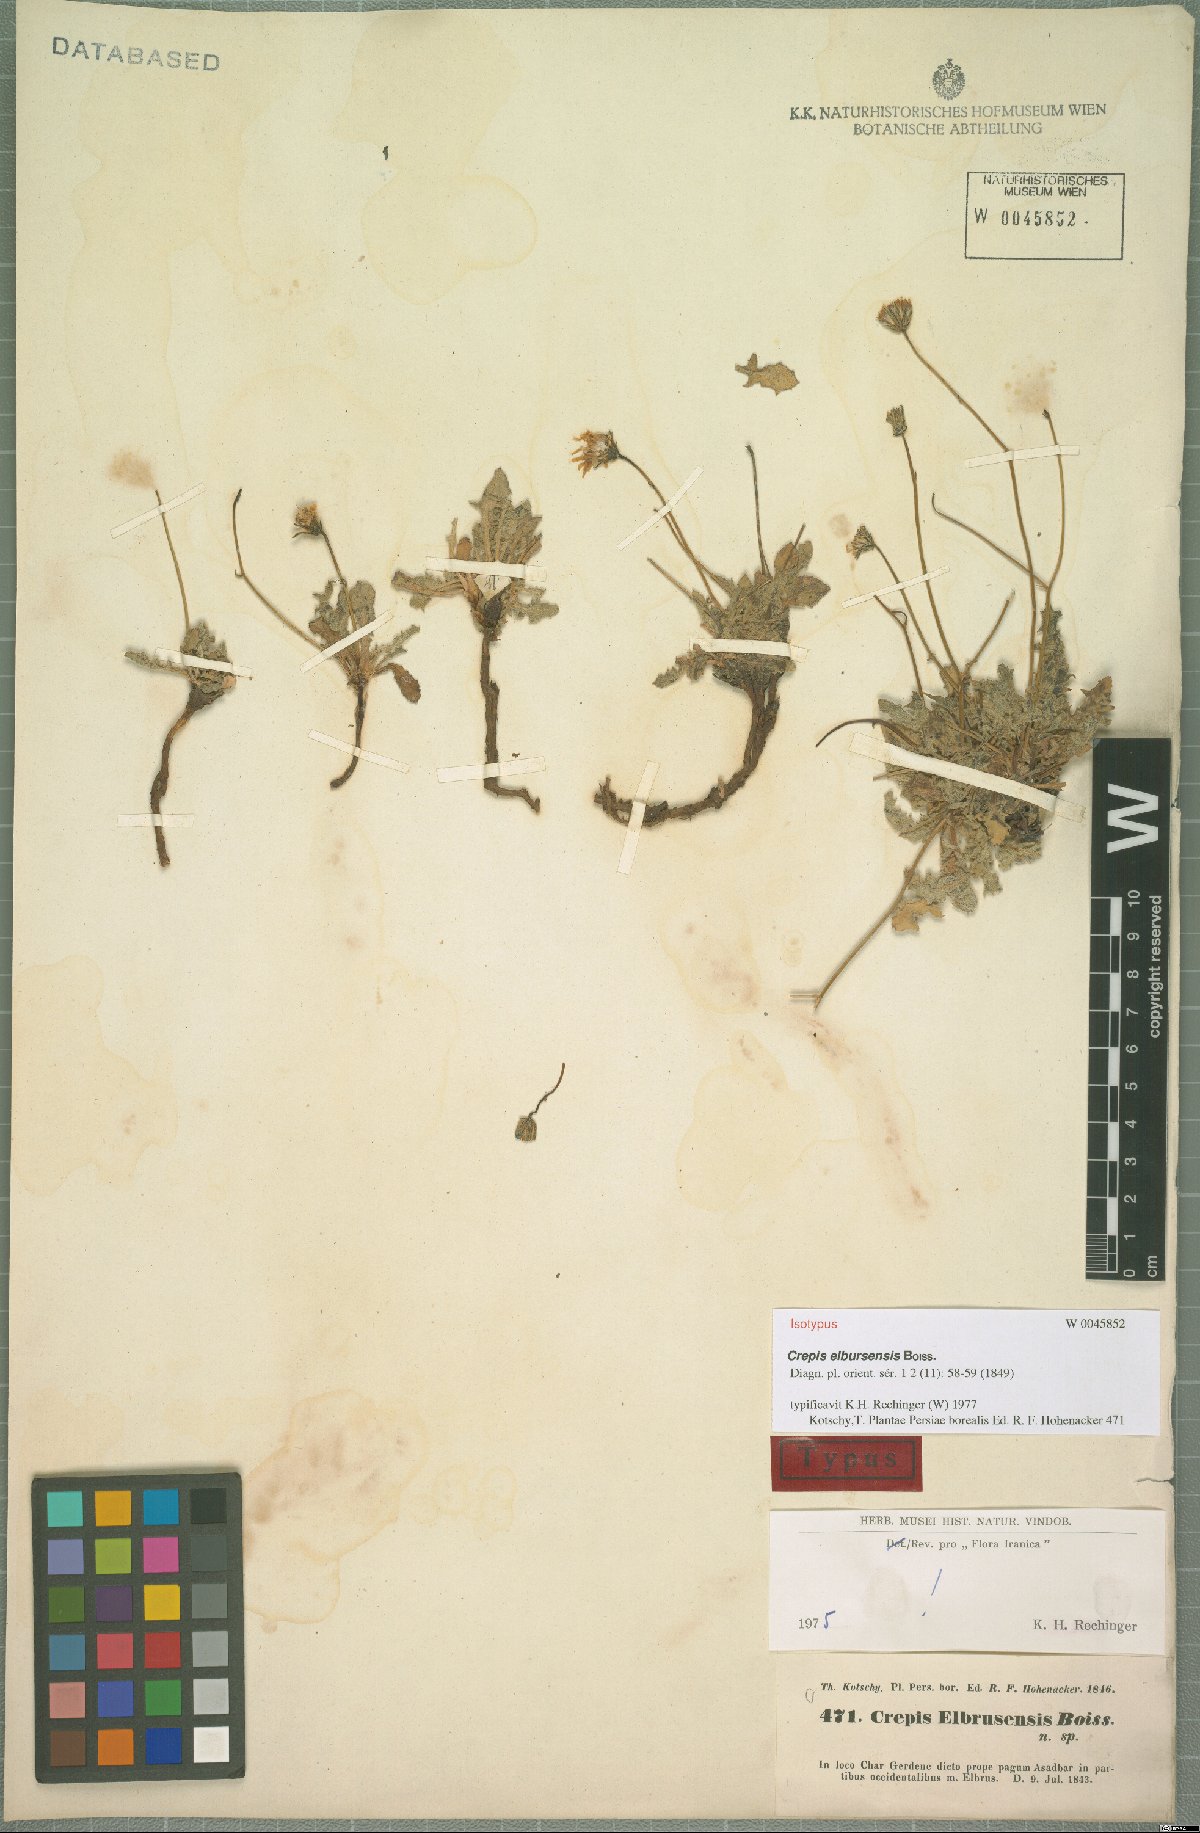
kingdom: Plantae
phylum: Tracheophyta
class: Magnoliopsida
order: Asterales
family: Asteraceae
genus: Crepis
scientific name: Crepis elbursensis
